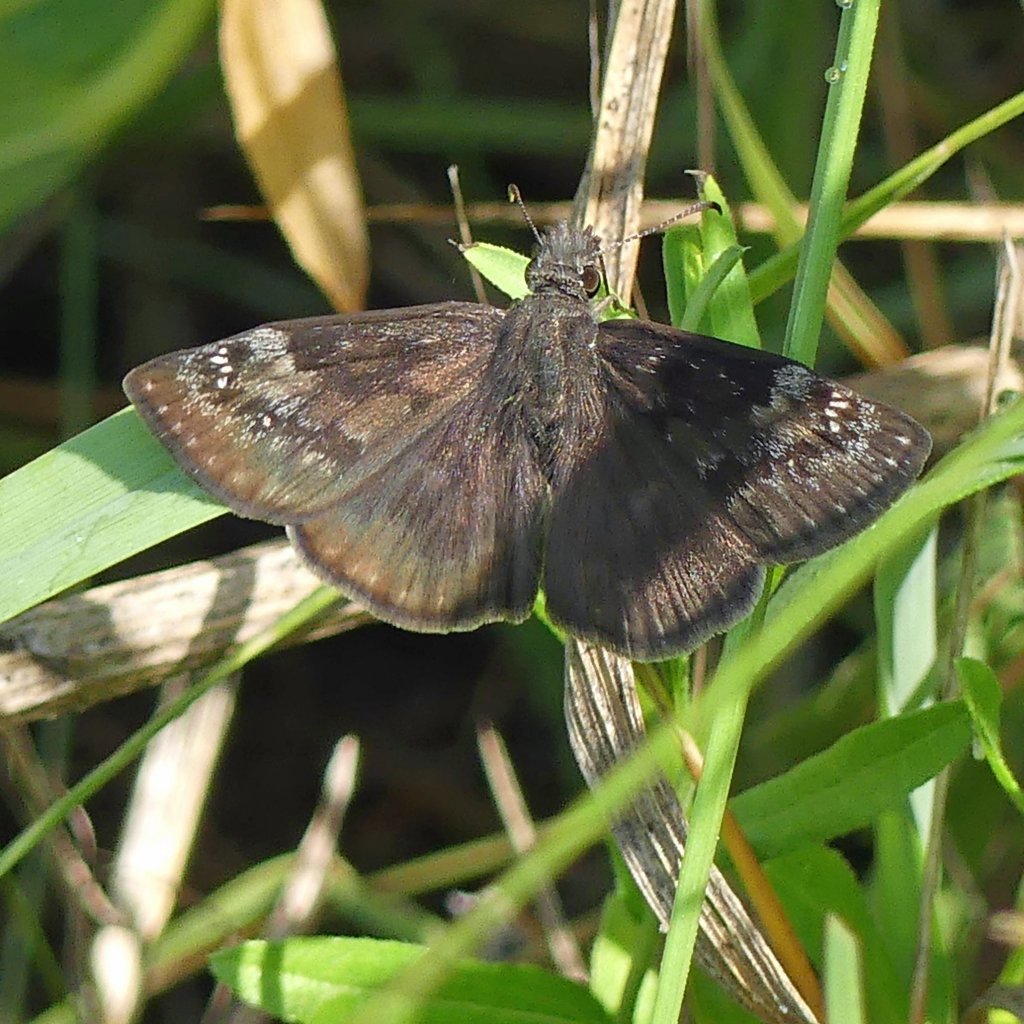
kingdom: Animalia
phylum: Arthropoda
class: Insecta
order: Lepidoptera
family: Hesperiidae
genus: Gesta
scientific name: Gesta
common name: Wild Indigo Duskywing
